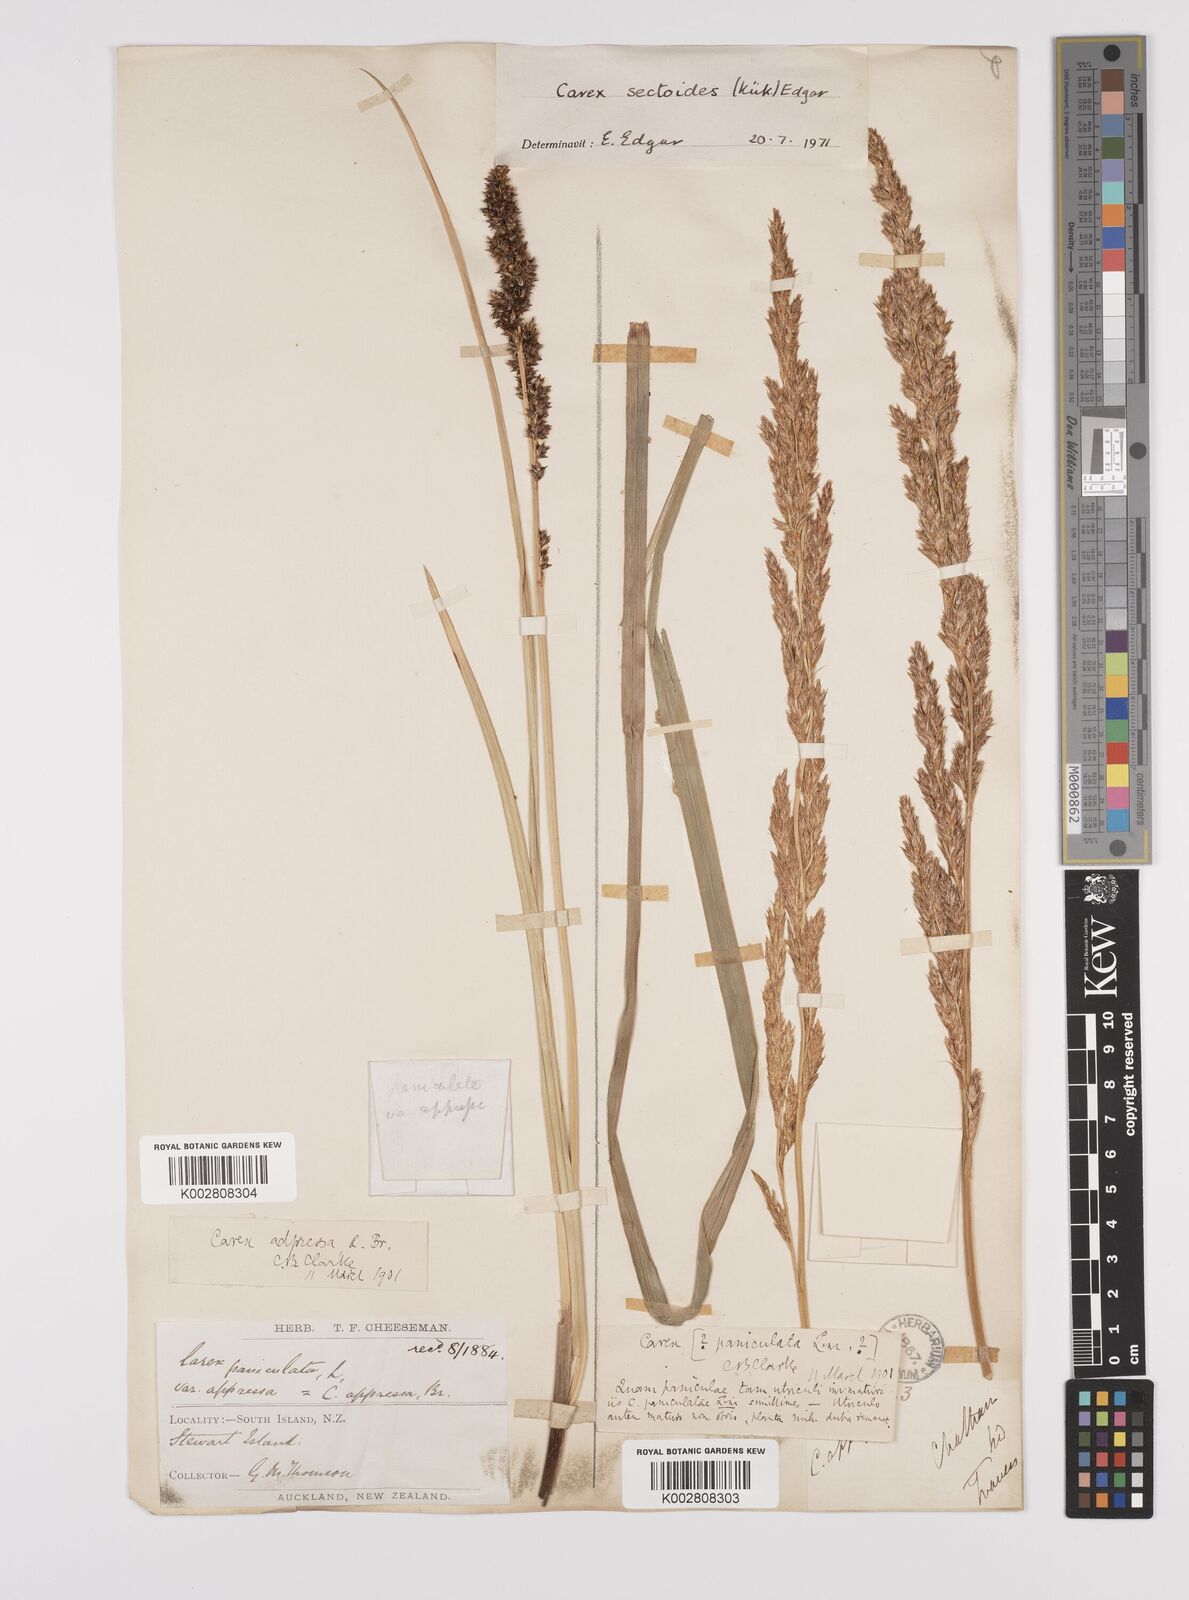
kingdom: Plantae
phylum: Tracheophyta
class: Liliopsida
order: Poales
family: Cyperaceae
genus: Carex
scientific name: Carex appressa
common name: Tussock sedge
